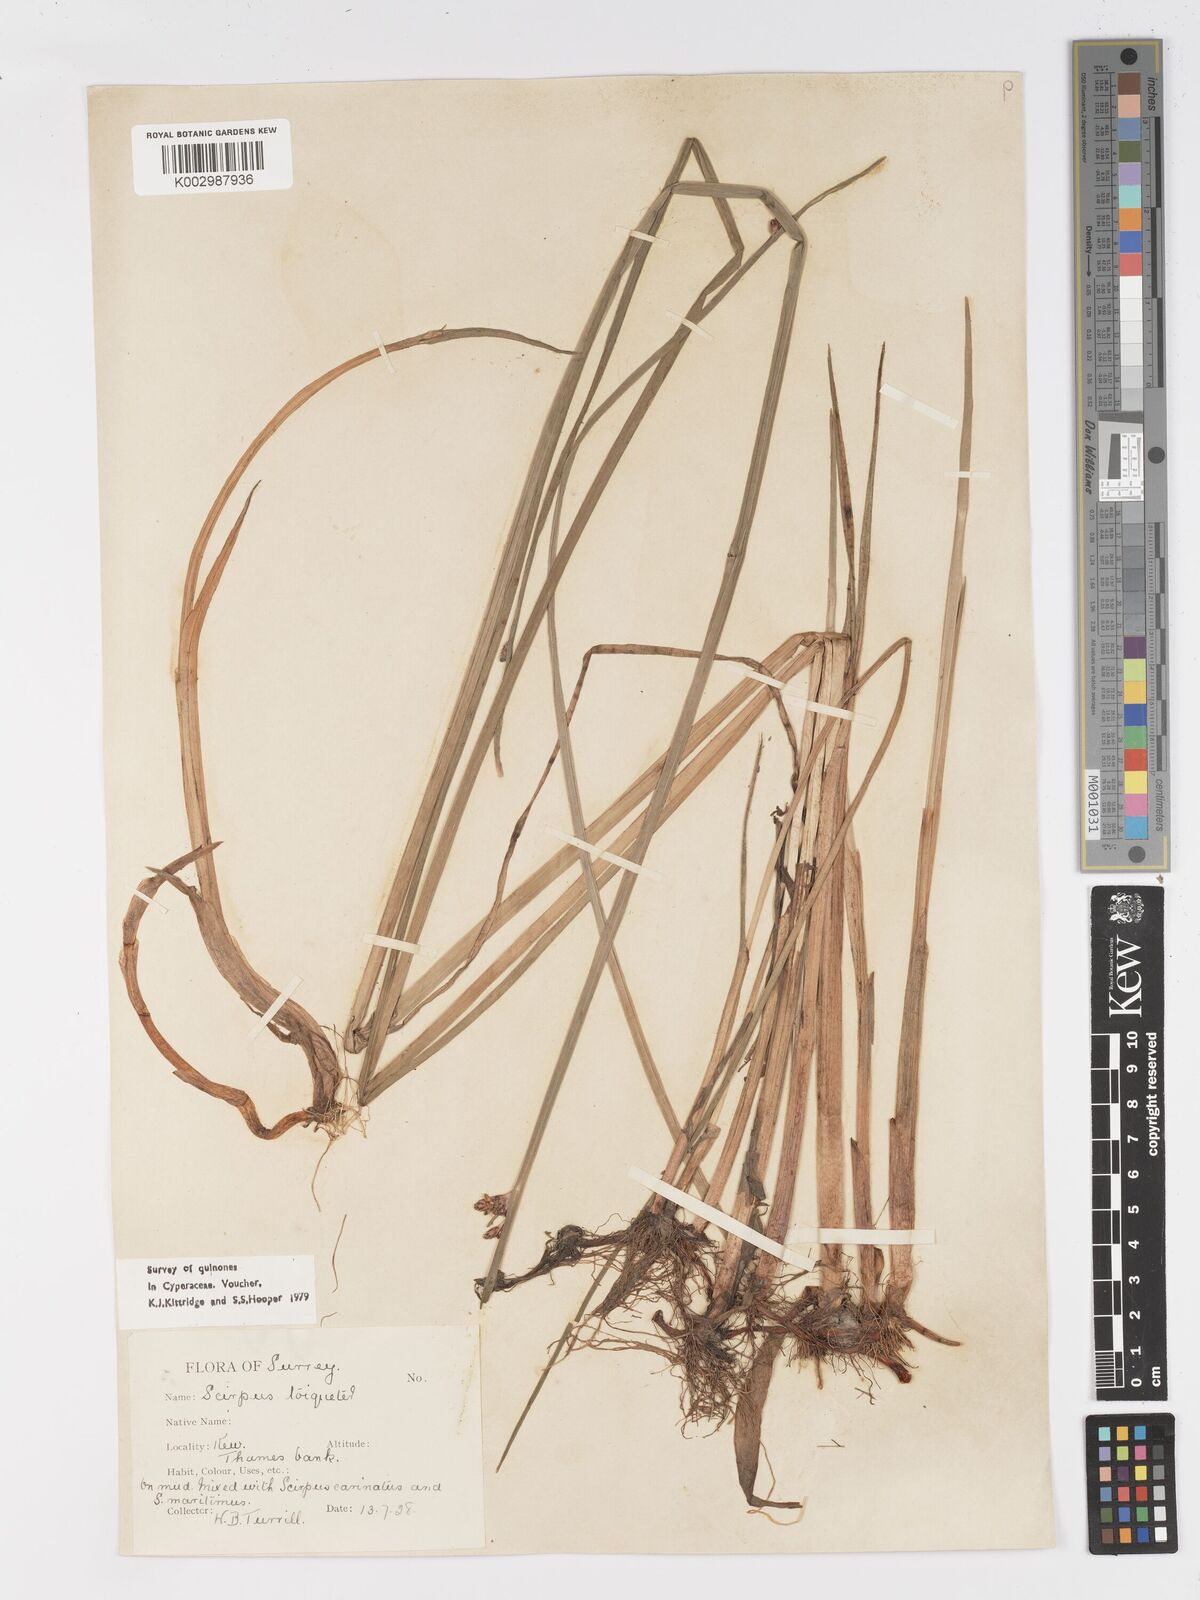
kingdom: Plantae
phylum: Tracheophyta
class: Liliopsida
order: Poales
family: Cyperaceae
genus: Schoenoplectus
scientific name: Schoenoplectus triqueter
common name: Triangular club-rush
